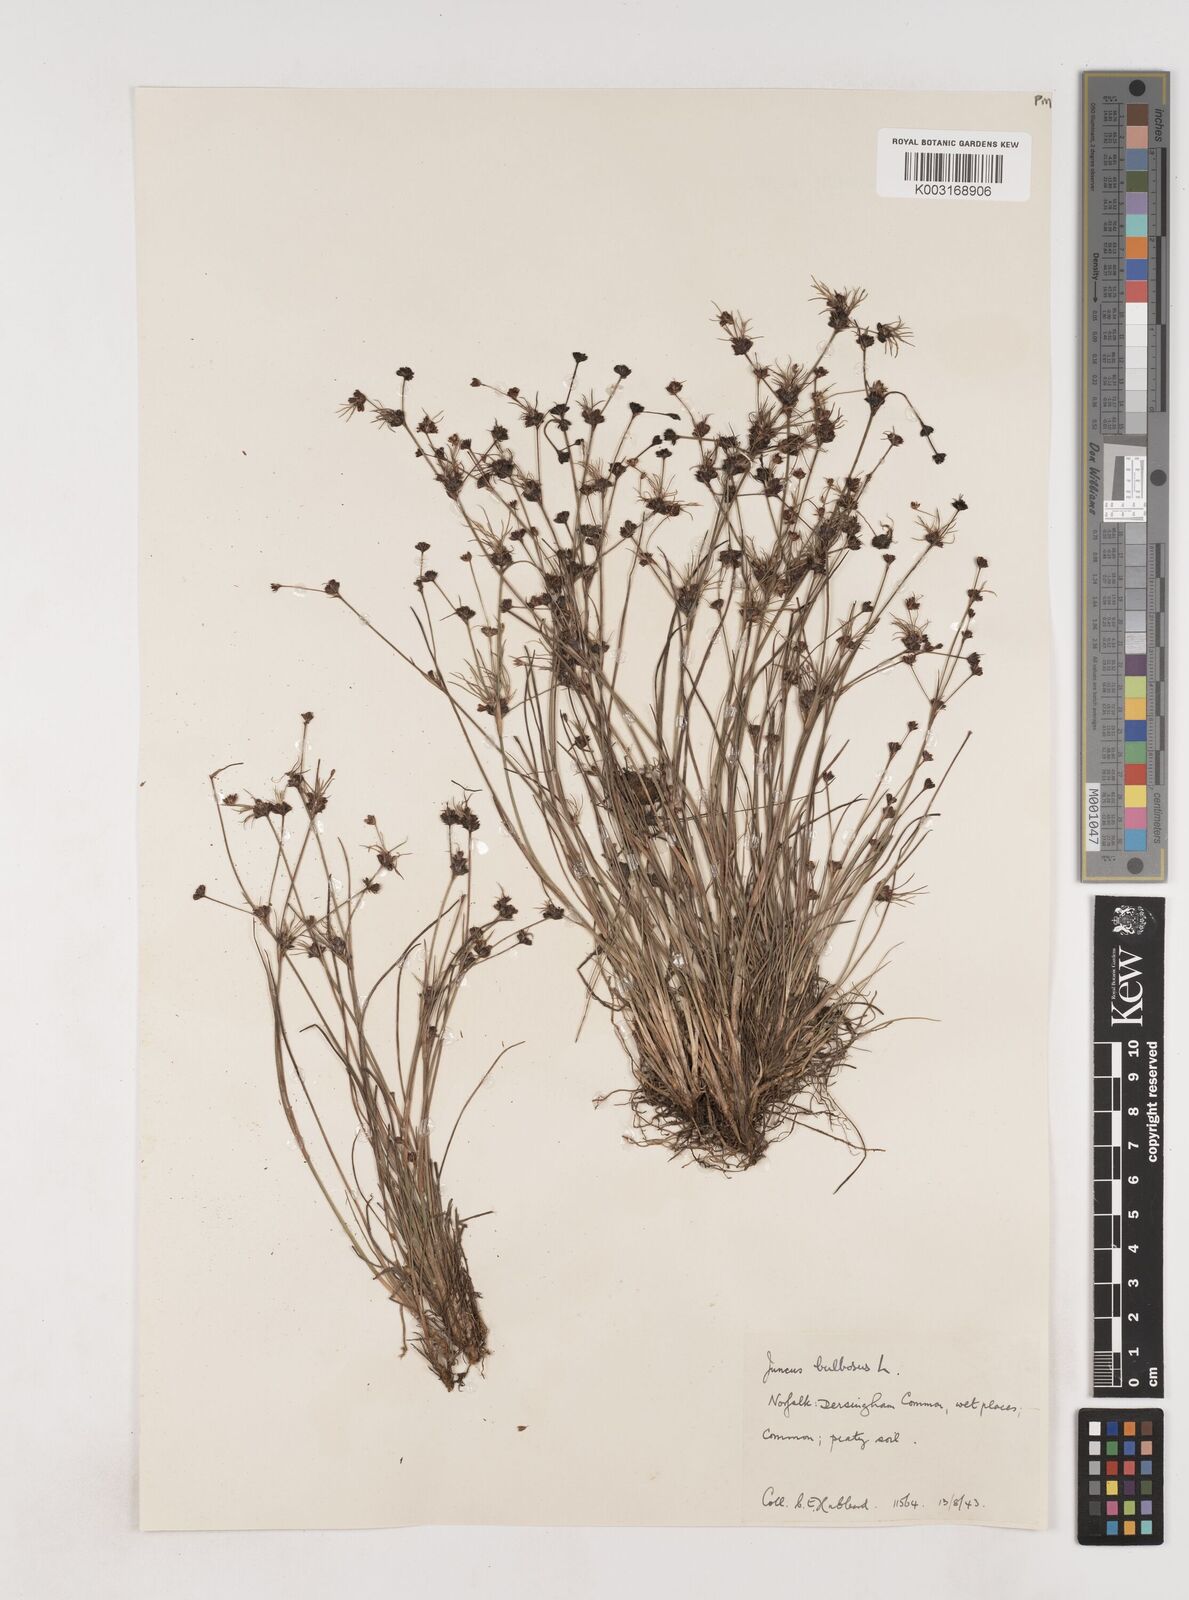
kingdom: Plantae
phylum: Tracheophyta
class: Liliopsida
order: Poales
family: Juncaceae
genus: Juncus
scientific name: Juncus bulbosus
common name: Bulbous rush
